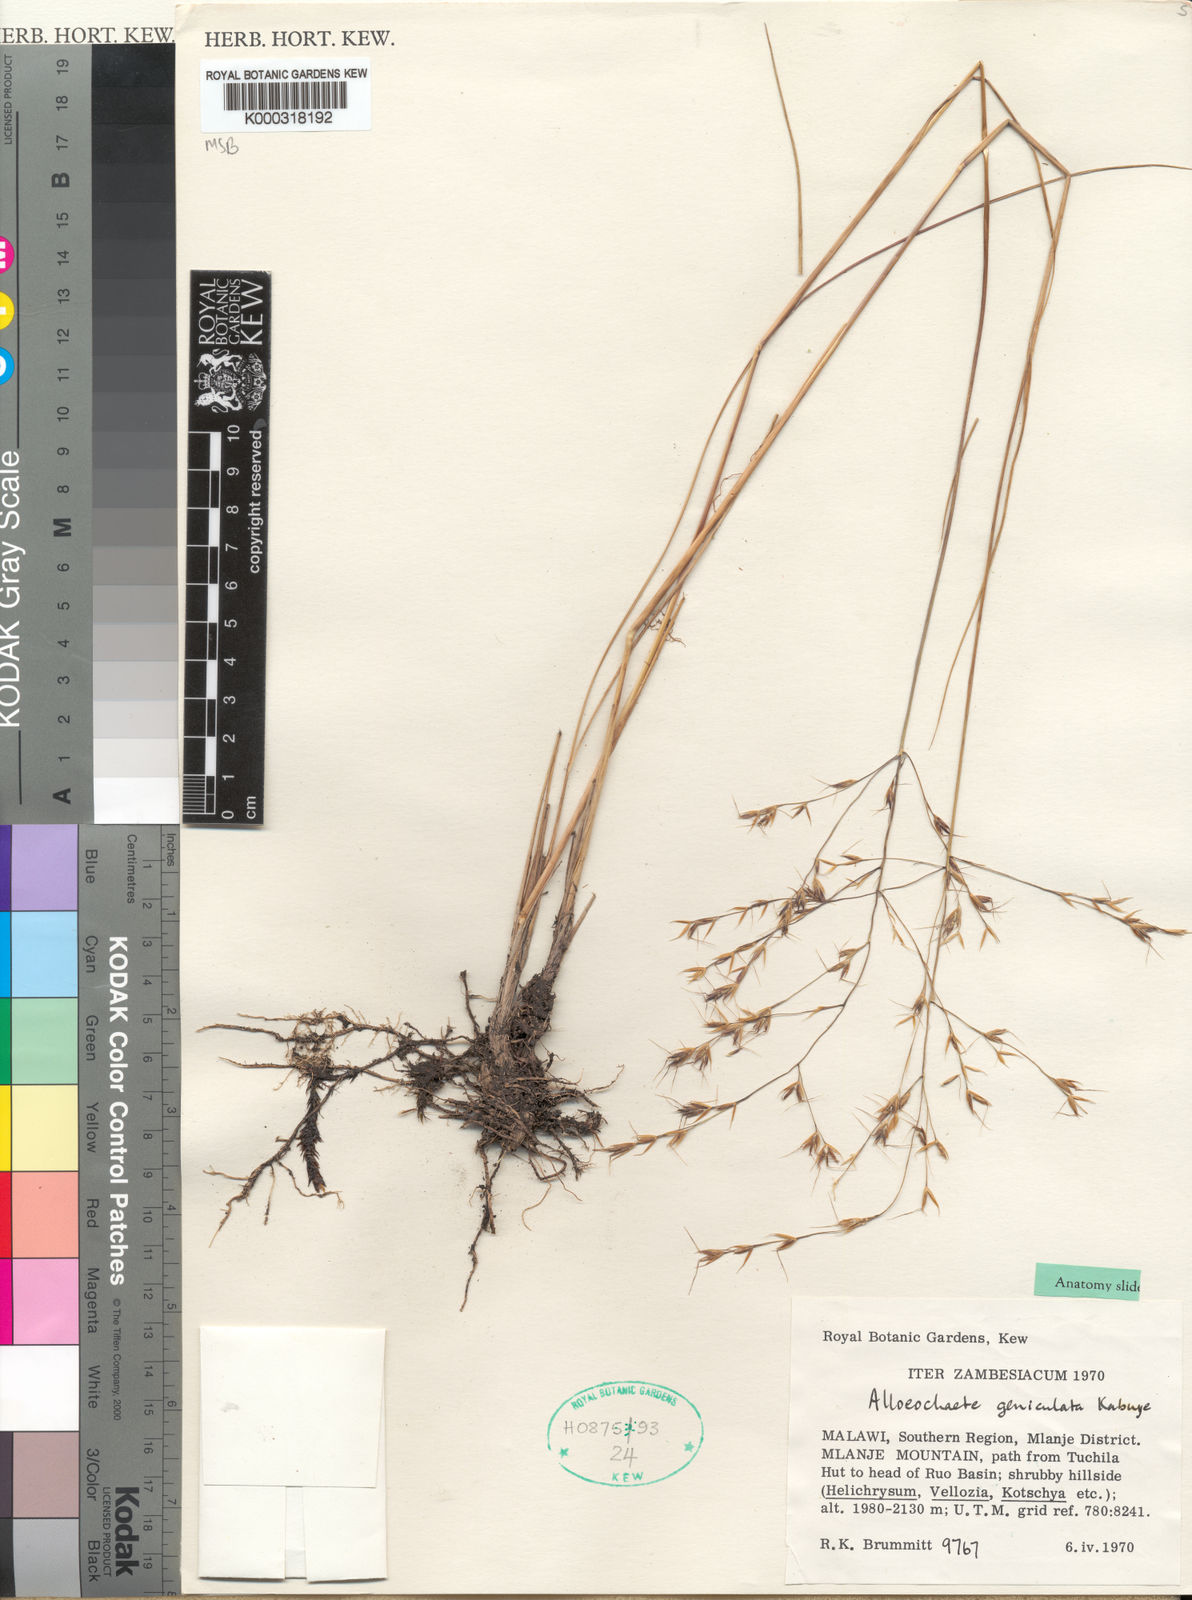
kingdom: Plantae
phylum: Tracheophyta
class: Liliopsida
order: Poales
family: Poaceae
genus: Alloeochaete
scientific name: Alloeochaete geniculata
